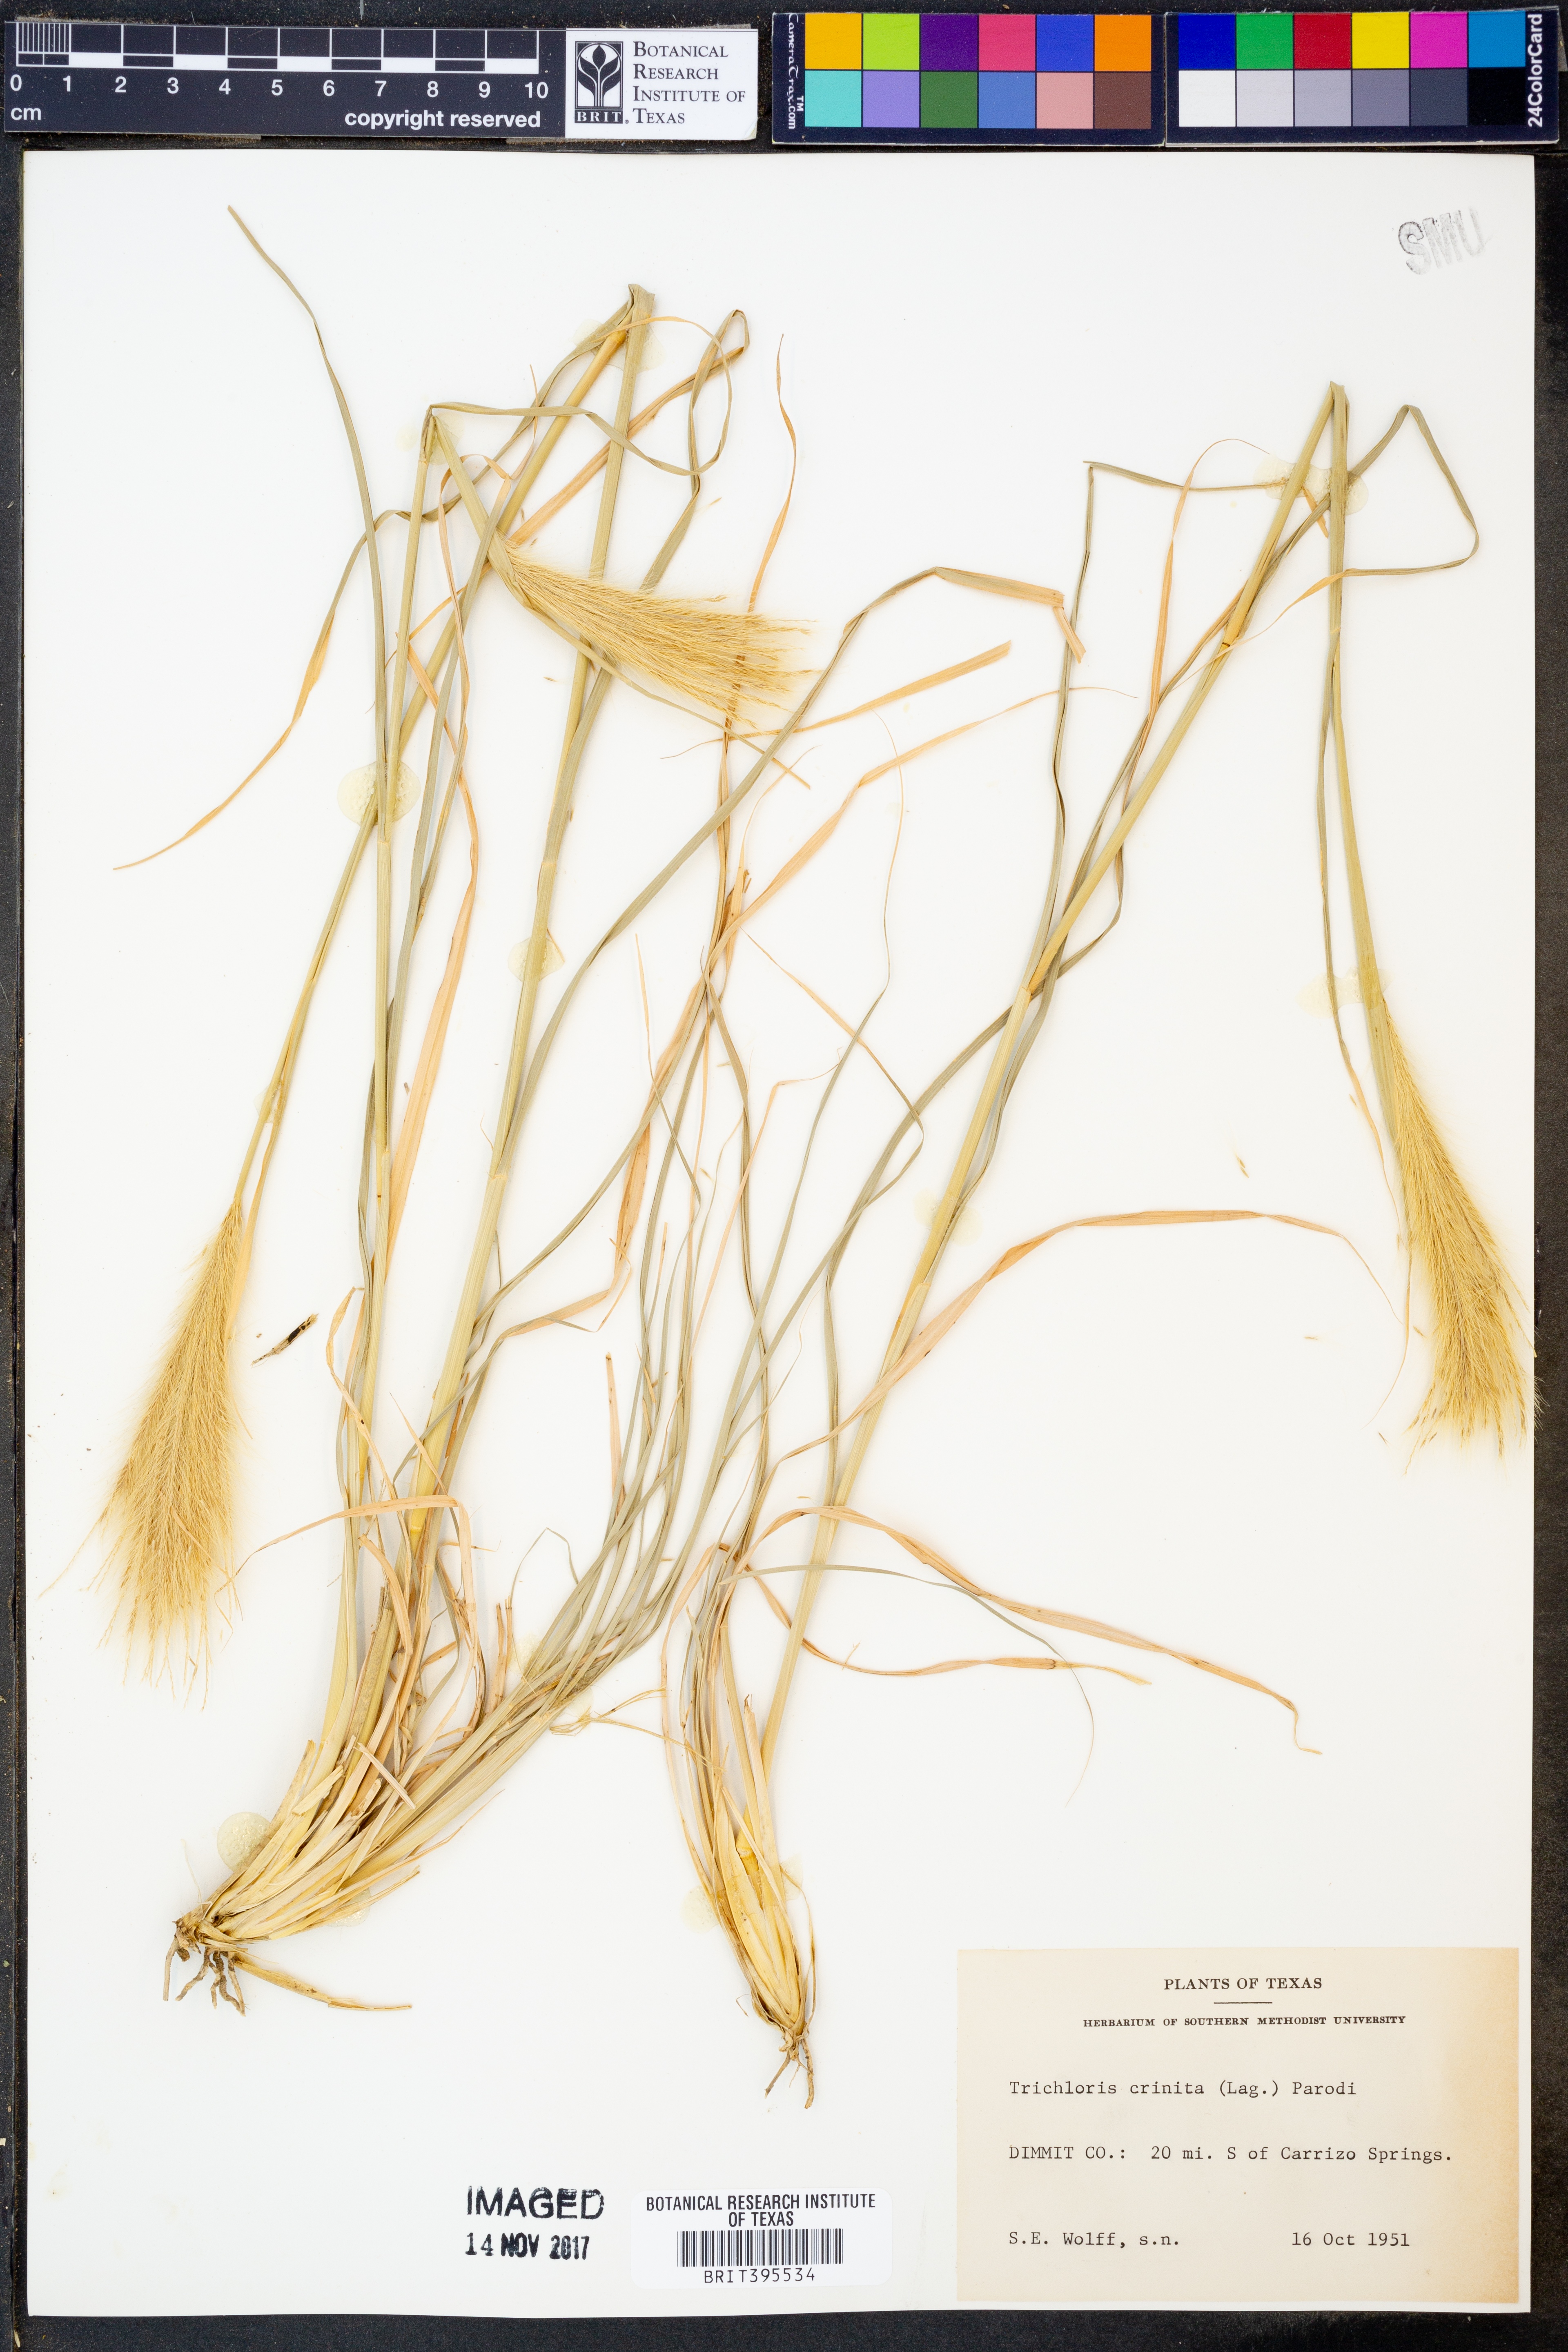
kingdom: Plantae
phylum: Tracheophyta
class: Liliopsida
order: Poales
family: Poaceae
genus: Leptochloa
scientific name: Leptochloa crinita
